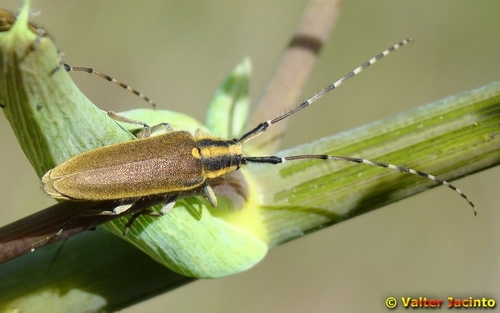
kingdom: Animalia
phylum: Arthropoda
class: Insecta
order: Coleoptera
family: Cerambycidae
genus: Agapanthia
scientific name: Agapanthia asphodeli
